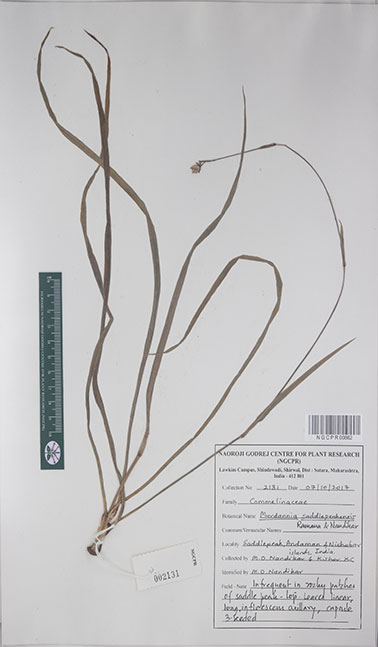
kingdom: Plantae
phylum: Tracheophyta
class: Liliopsida
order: Commelinales
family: Commelinaceae
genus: Murdannia
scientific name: Murdannia saddlepeakensis
